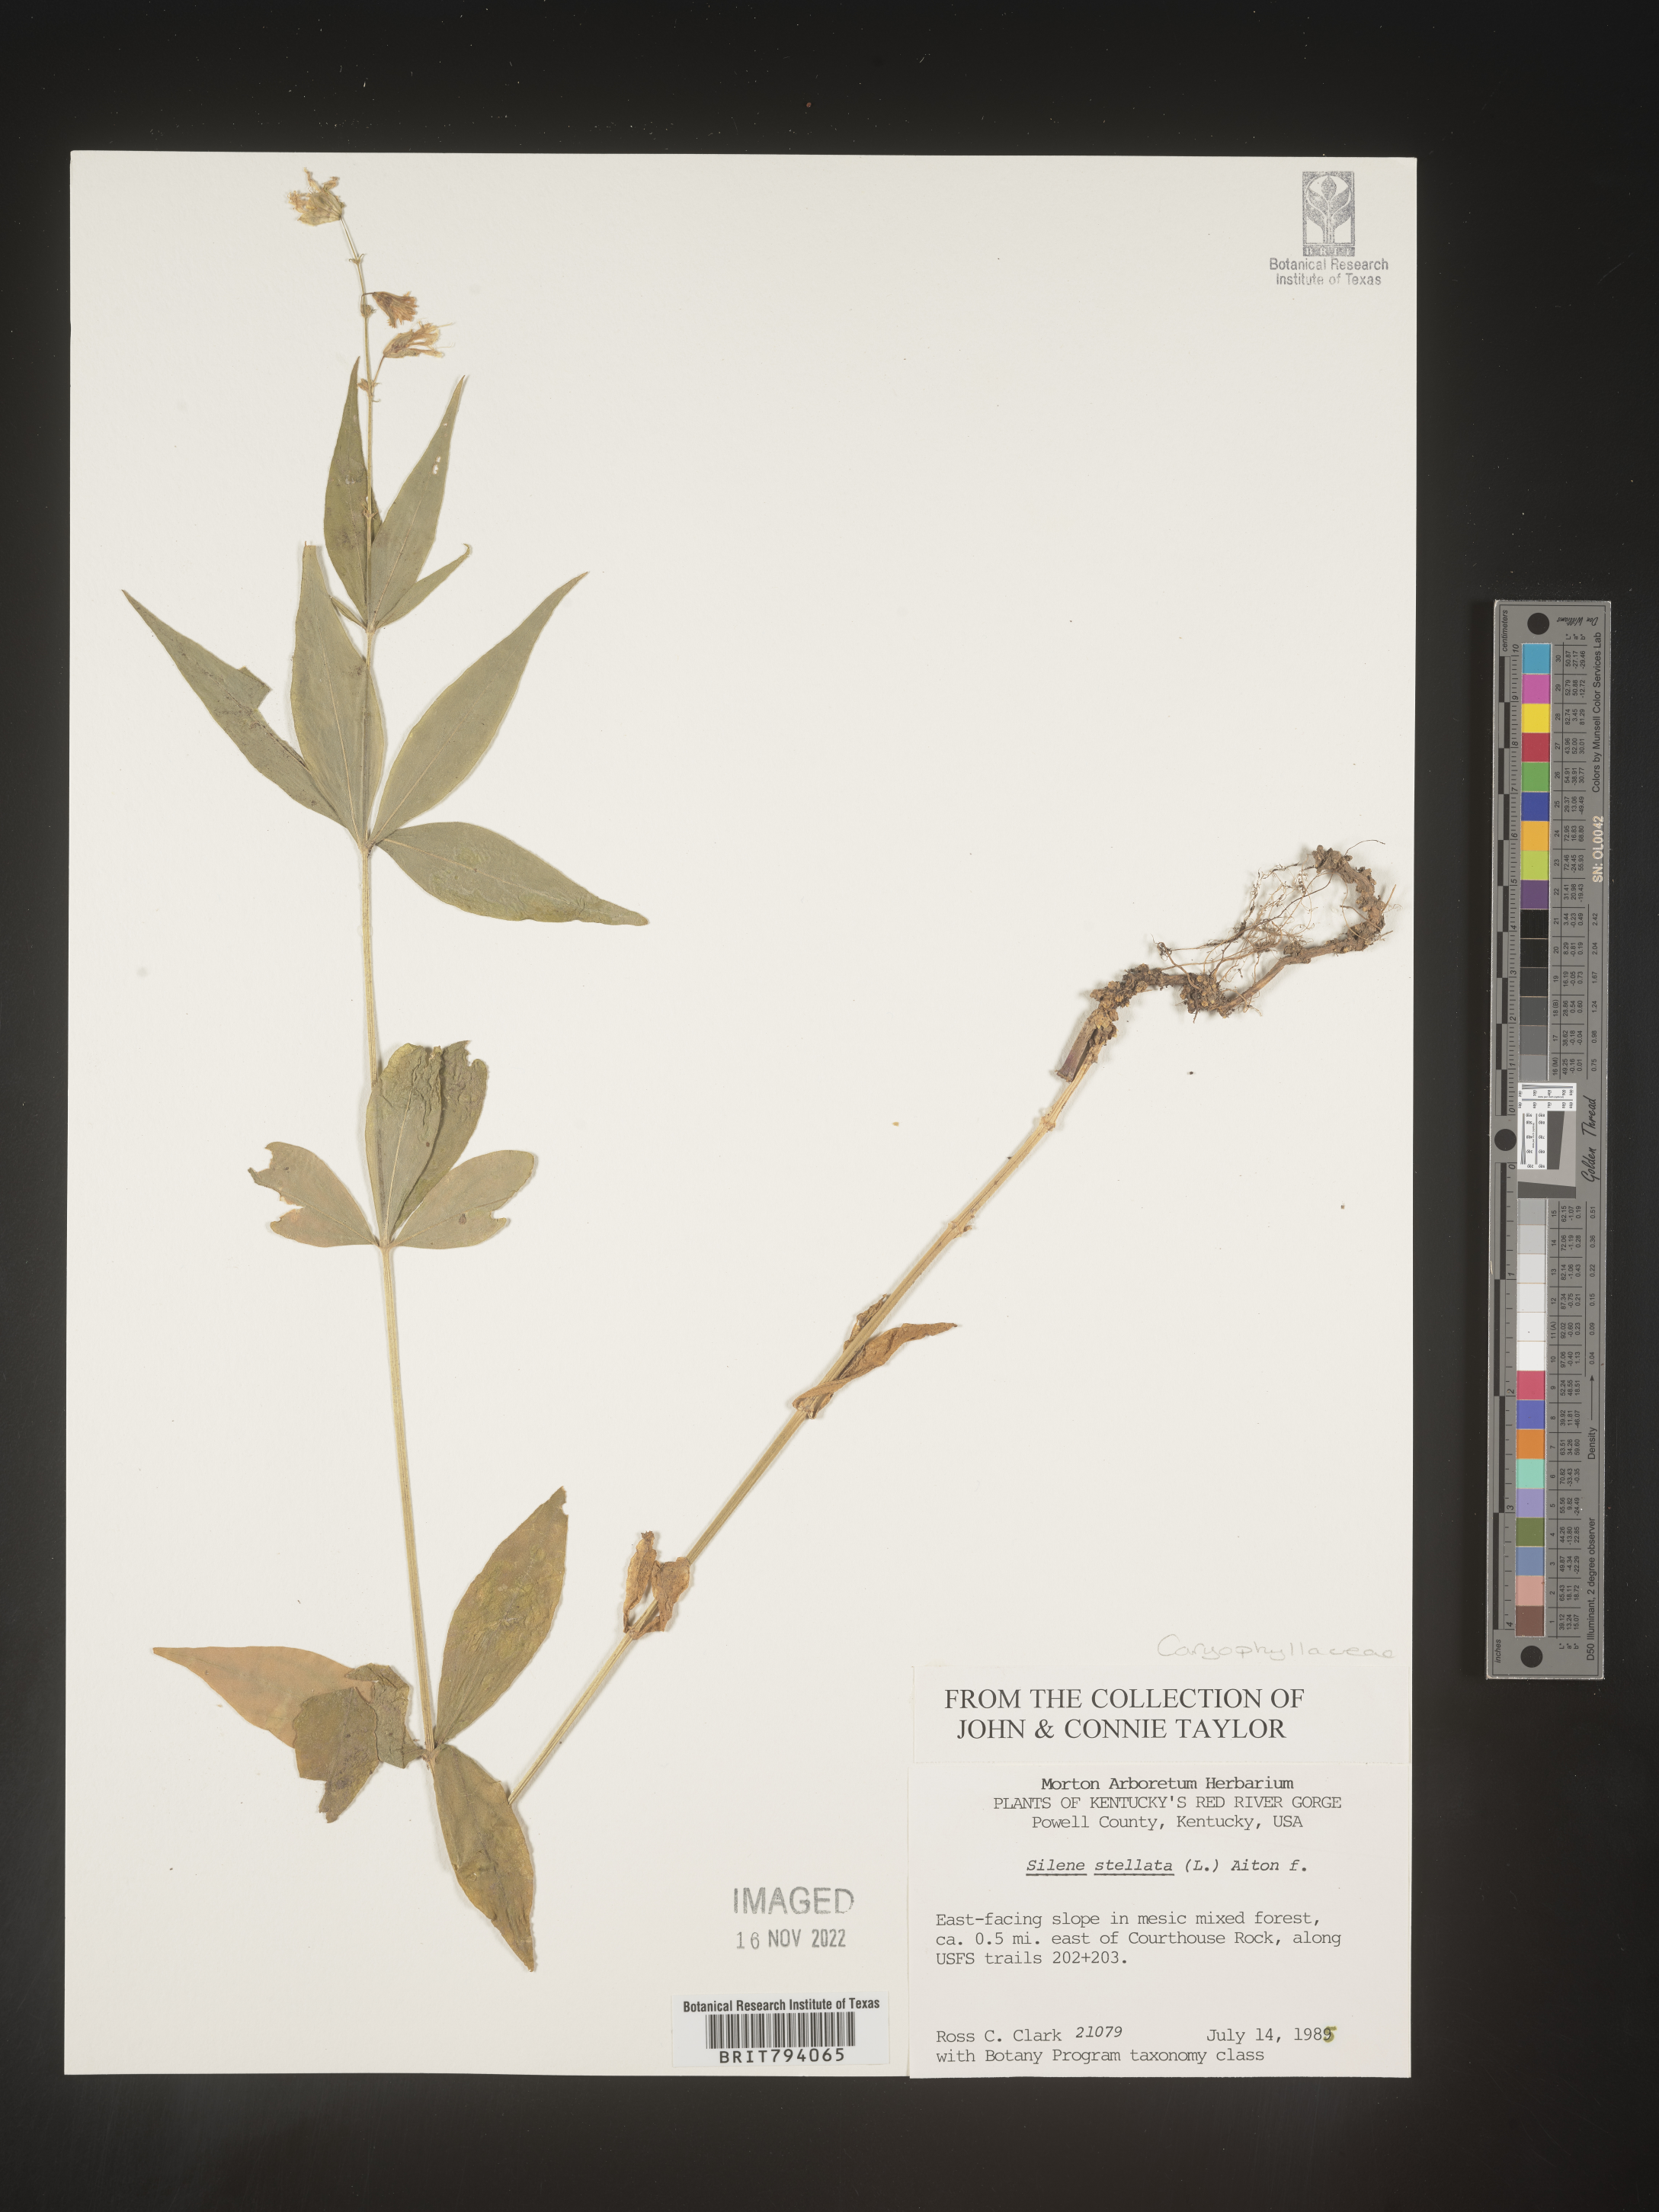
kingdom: Plantae
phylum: Tracheophyta
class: Magnoliopsida
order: Caryophyllales
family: Caryophyllaceae
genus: Silene
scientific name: Silene stellata
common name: Starry campion
